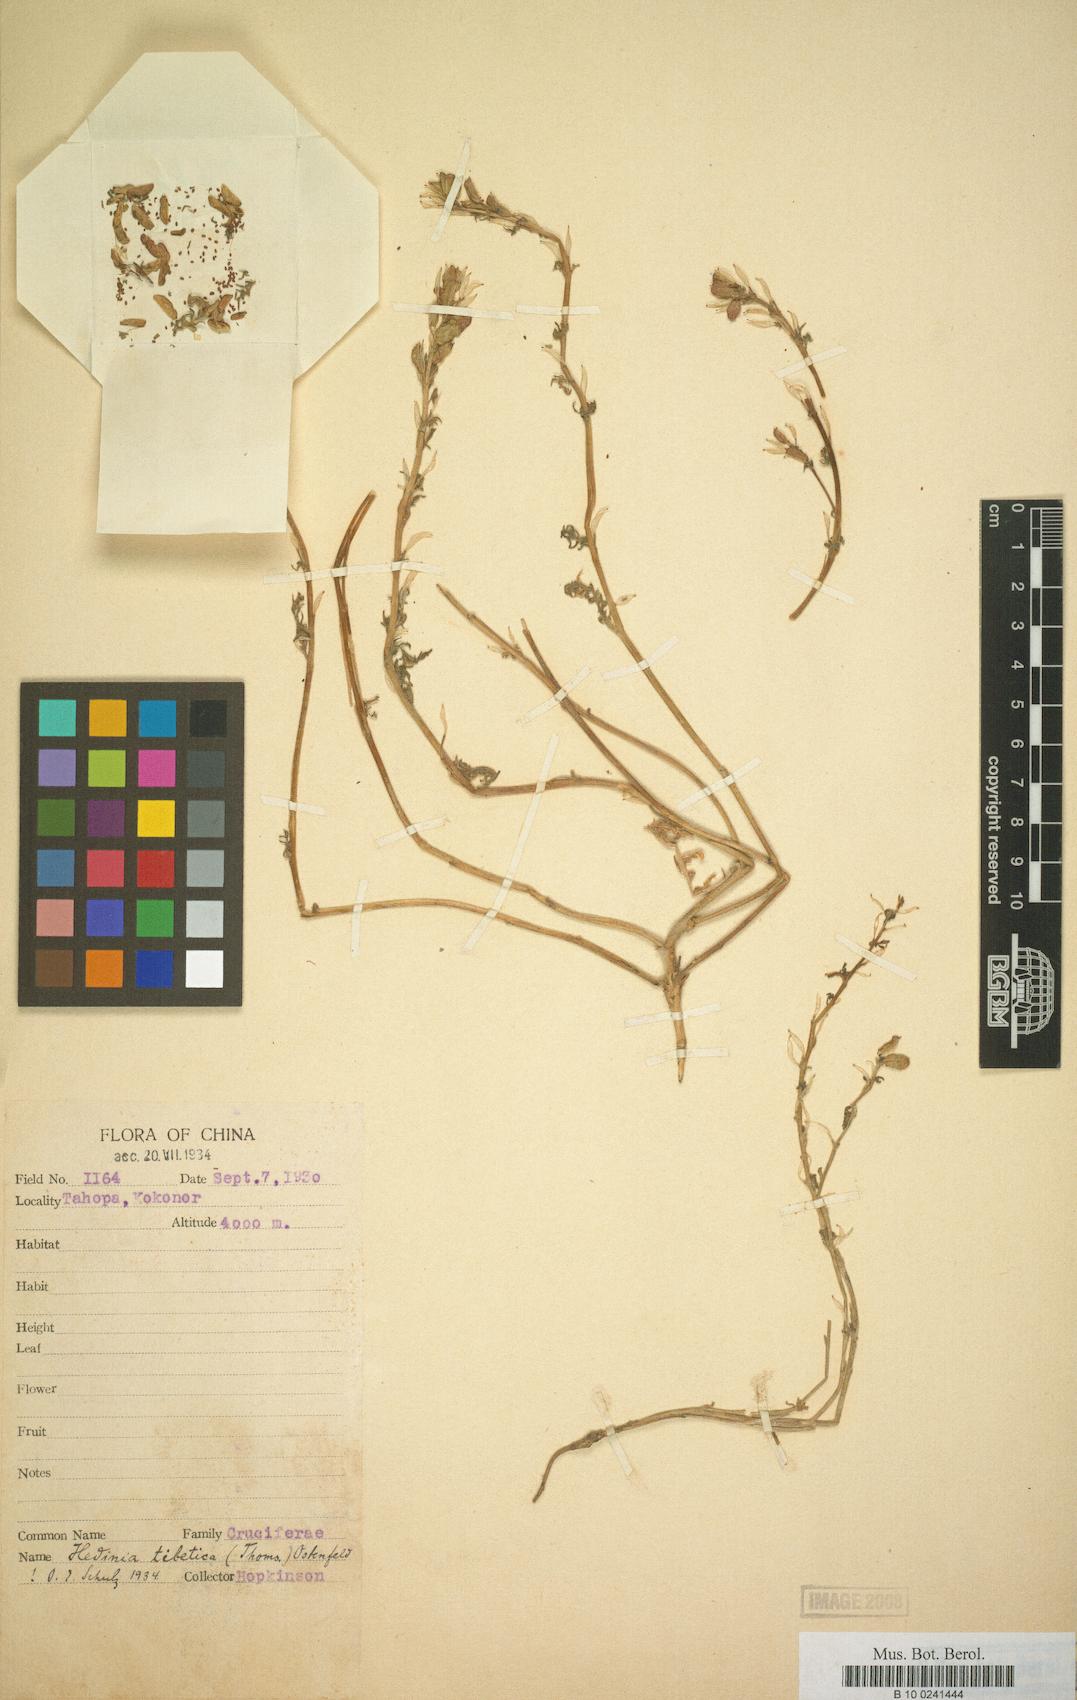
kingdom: Plantae
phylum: Tracheophyta
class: Magnoliopsida
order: Brassicales
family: Brassicaceae
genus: Smelowskia
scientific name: Smelowskia tibetica
